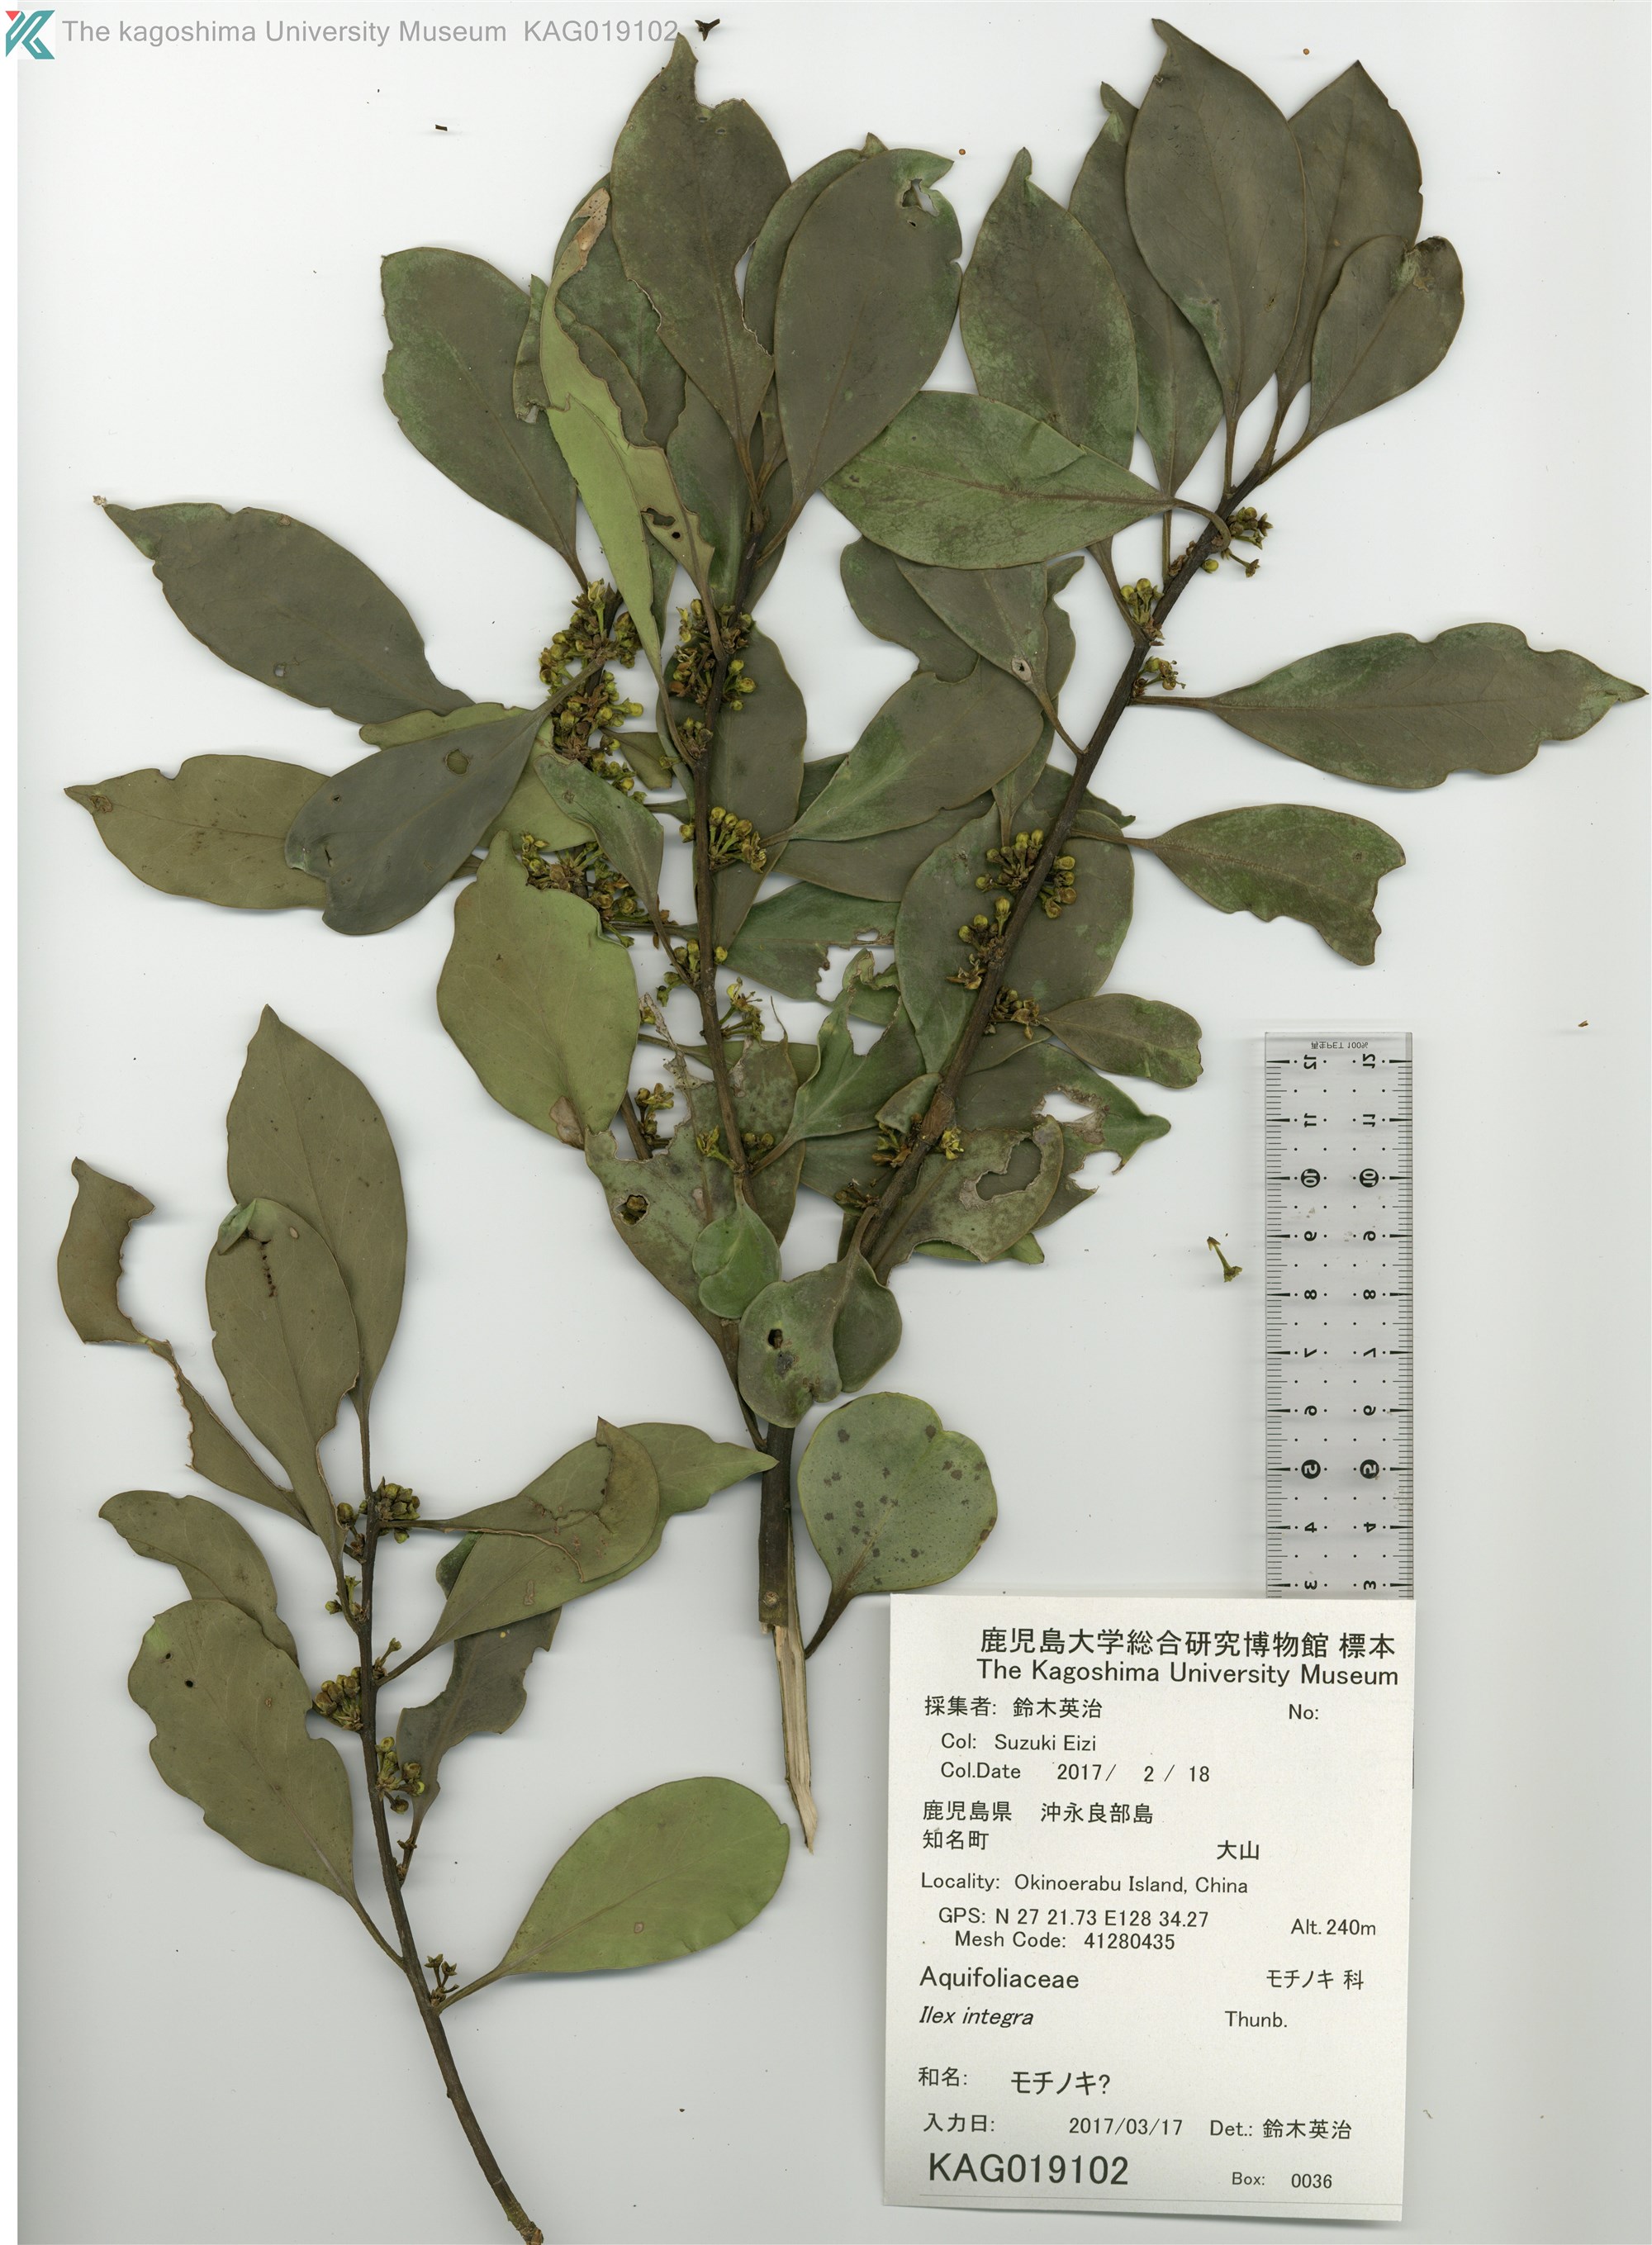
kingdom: Plantae
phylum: Tracheophyta
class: Magnoliopsida
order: Aquifoliales
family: Aquifoliaceae
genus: Ilex
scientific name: Ilex integra
